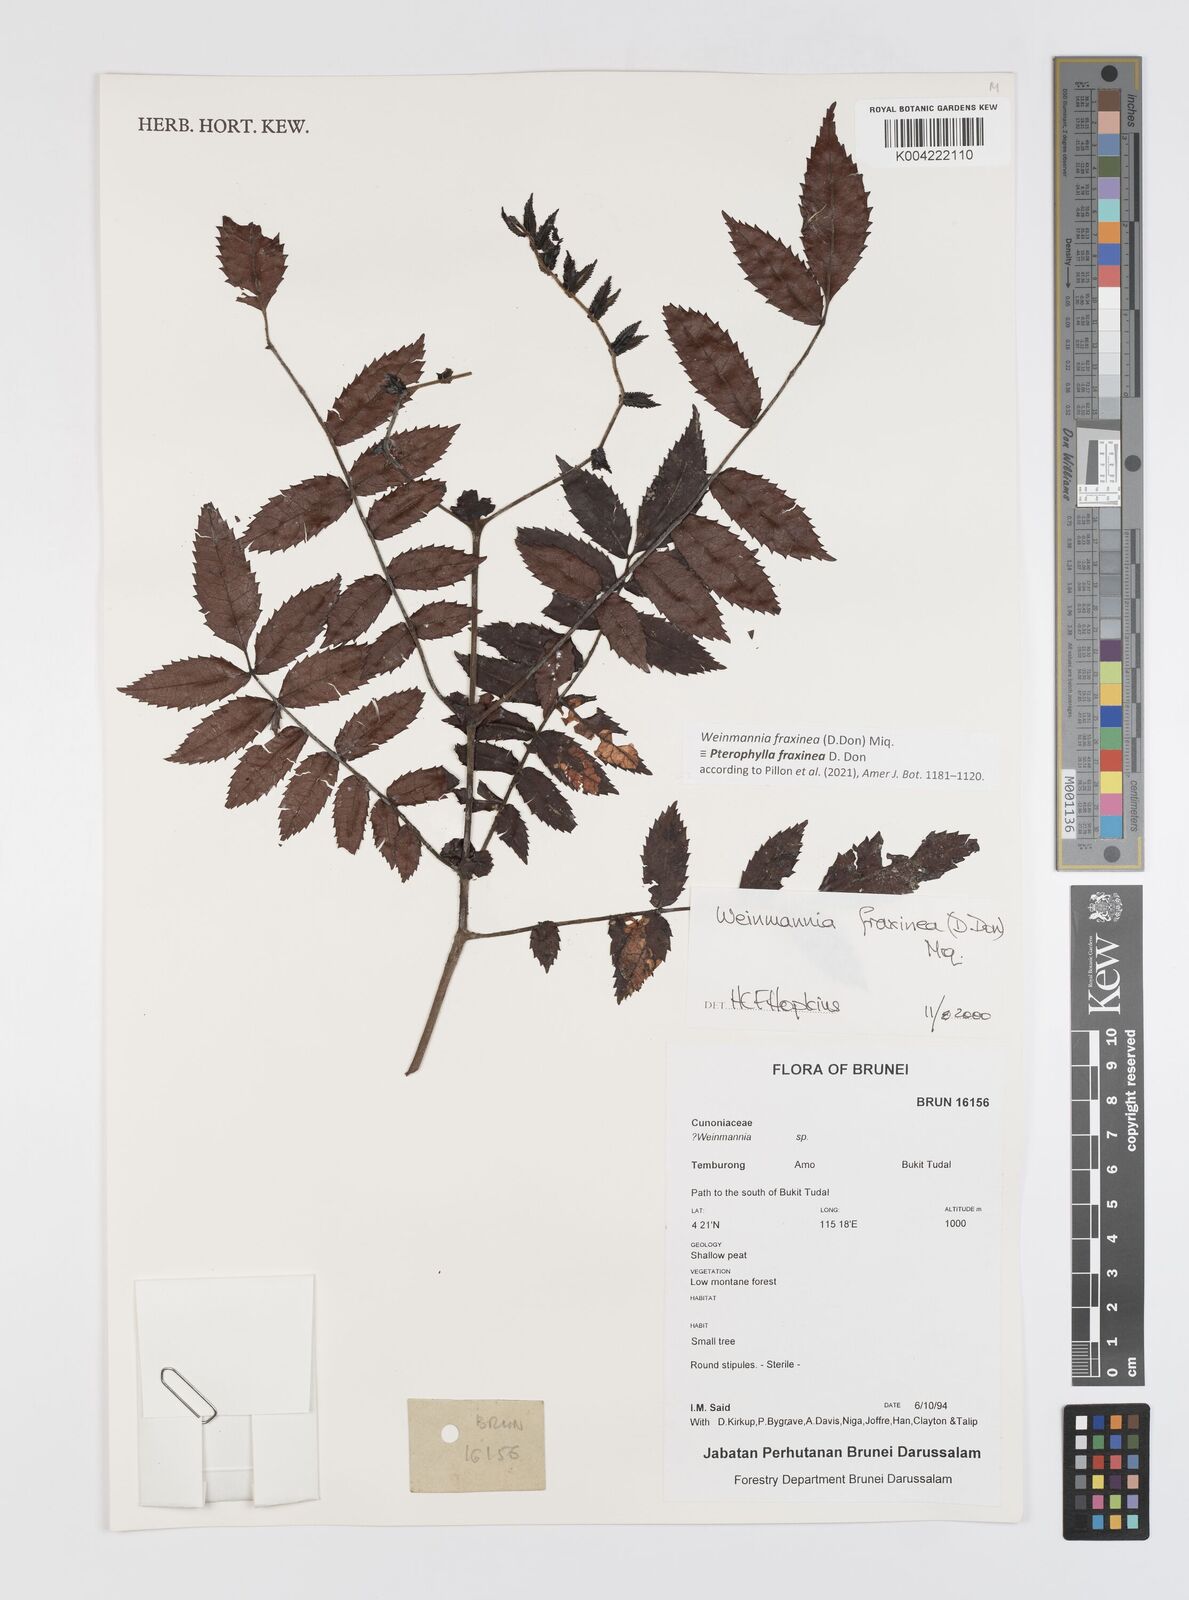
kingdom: Plantae
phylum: Tracheophyta
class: Magnoliopsida
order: Oxalidales
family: Cunoniaceae
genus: Pterophylla
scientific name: Pterophylla fraxinea
